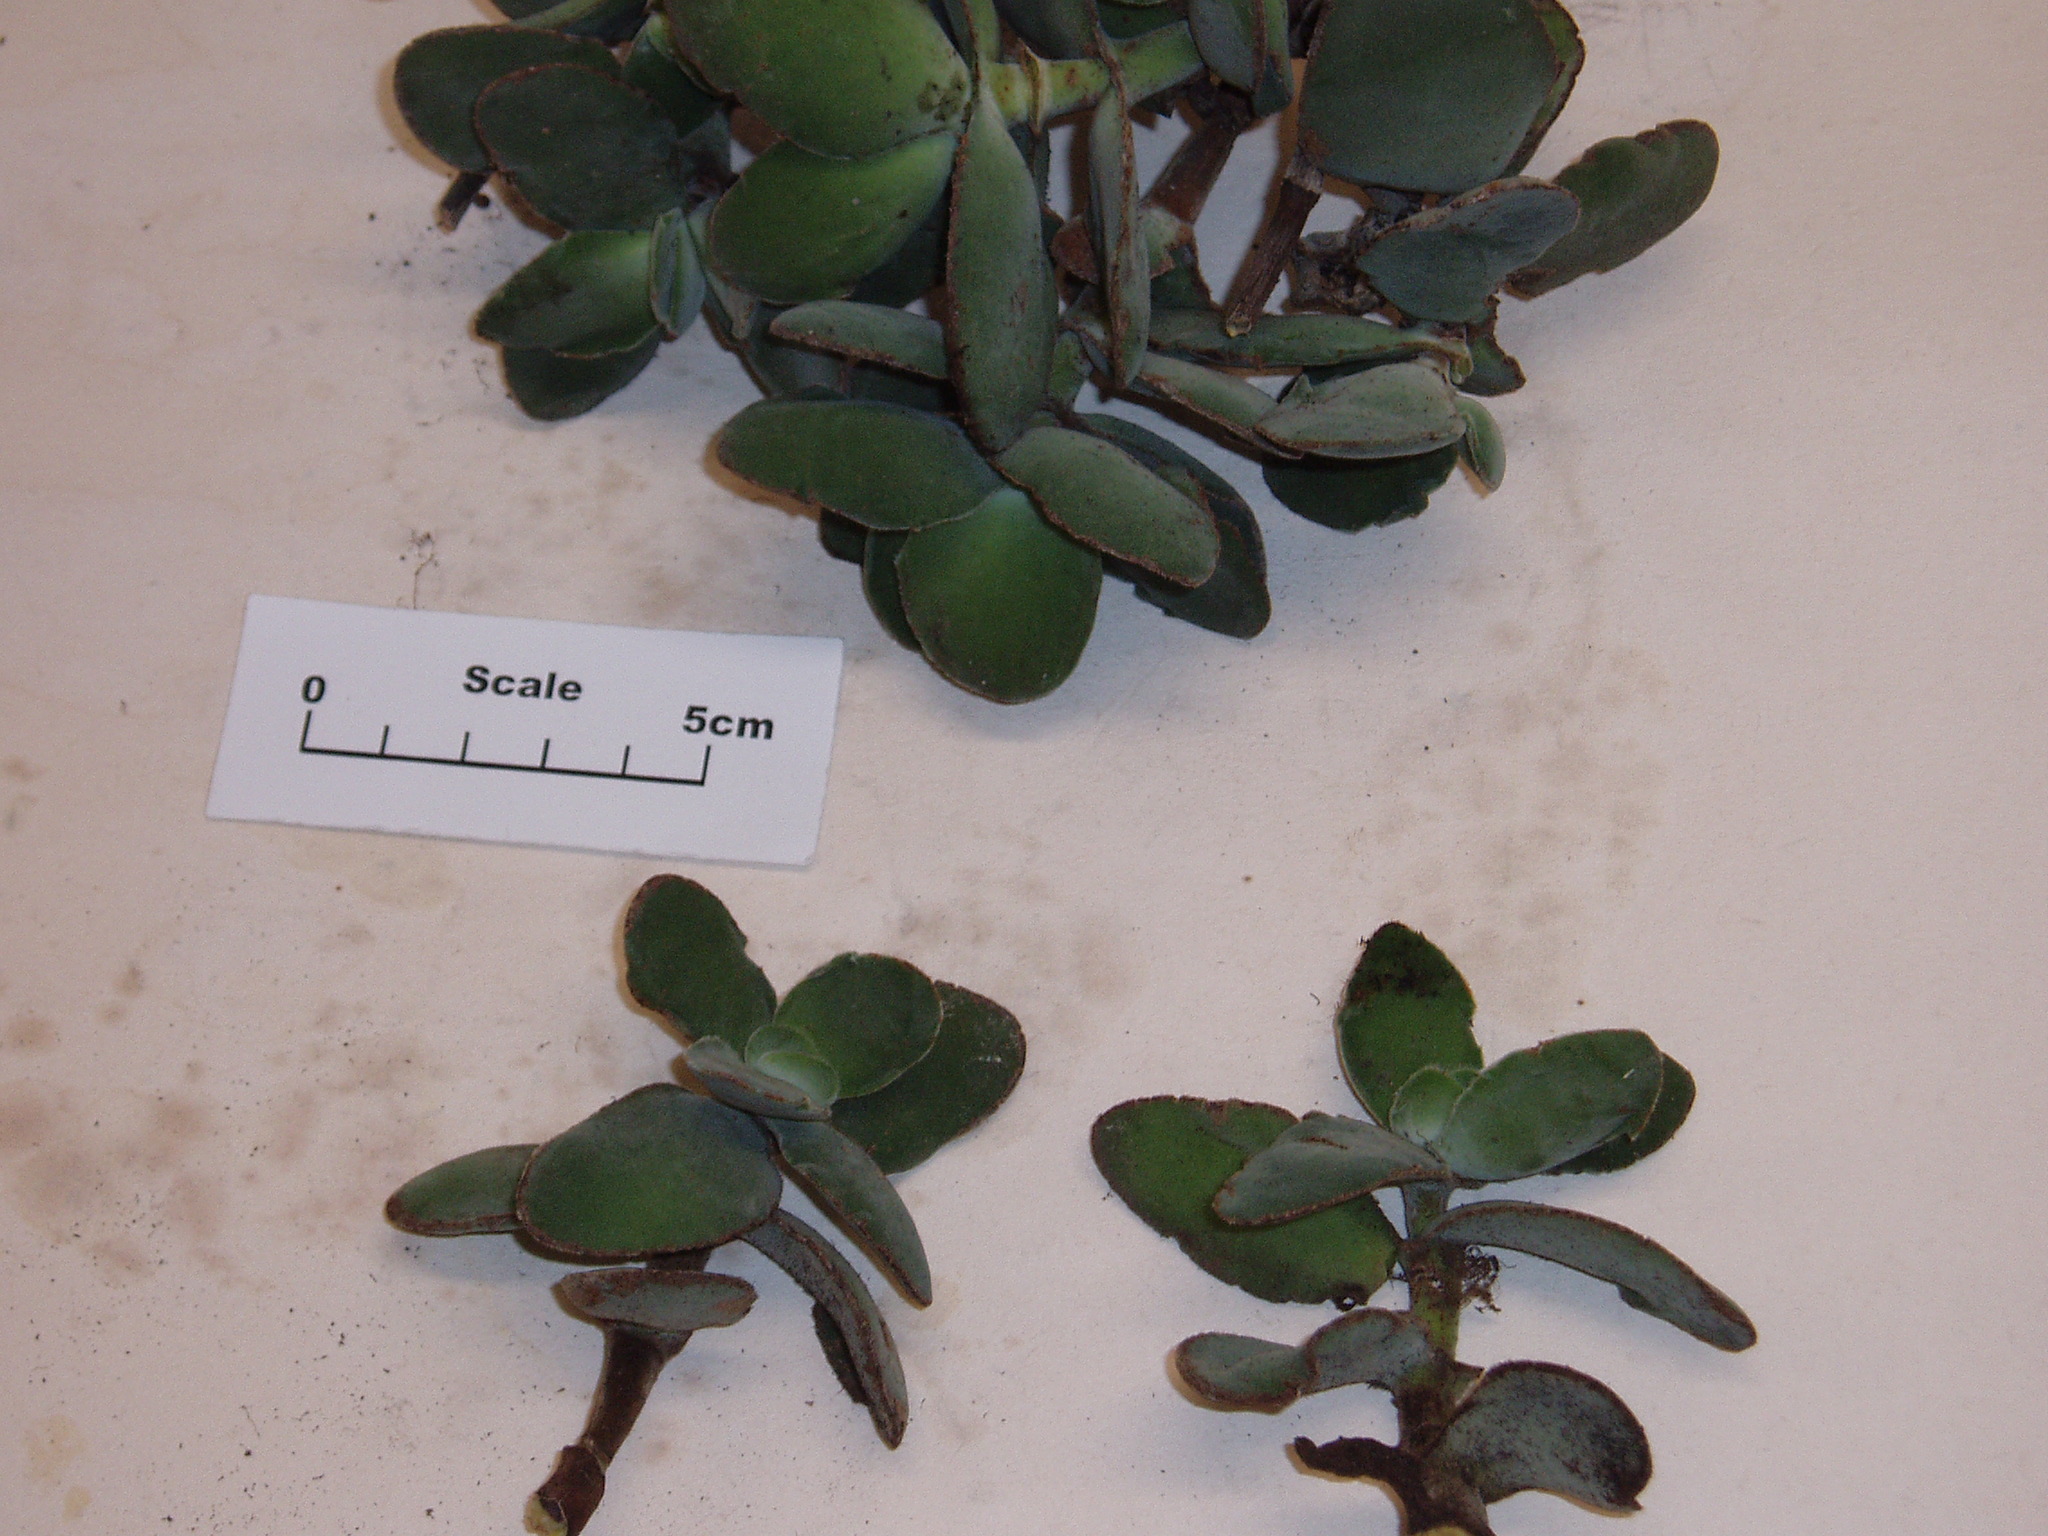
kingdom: Plantae
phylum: Tracheophyta
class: Magnoliopsida
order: Saxifragales
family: Crassulaceae
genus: Crassula
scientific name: Crassula cotyledonis
